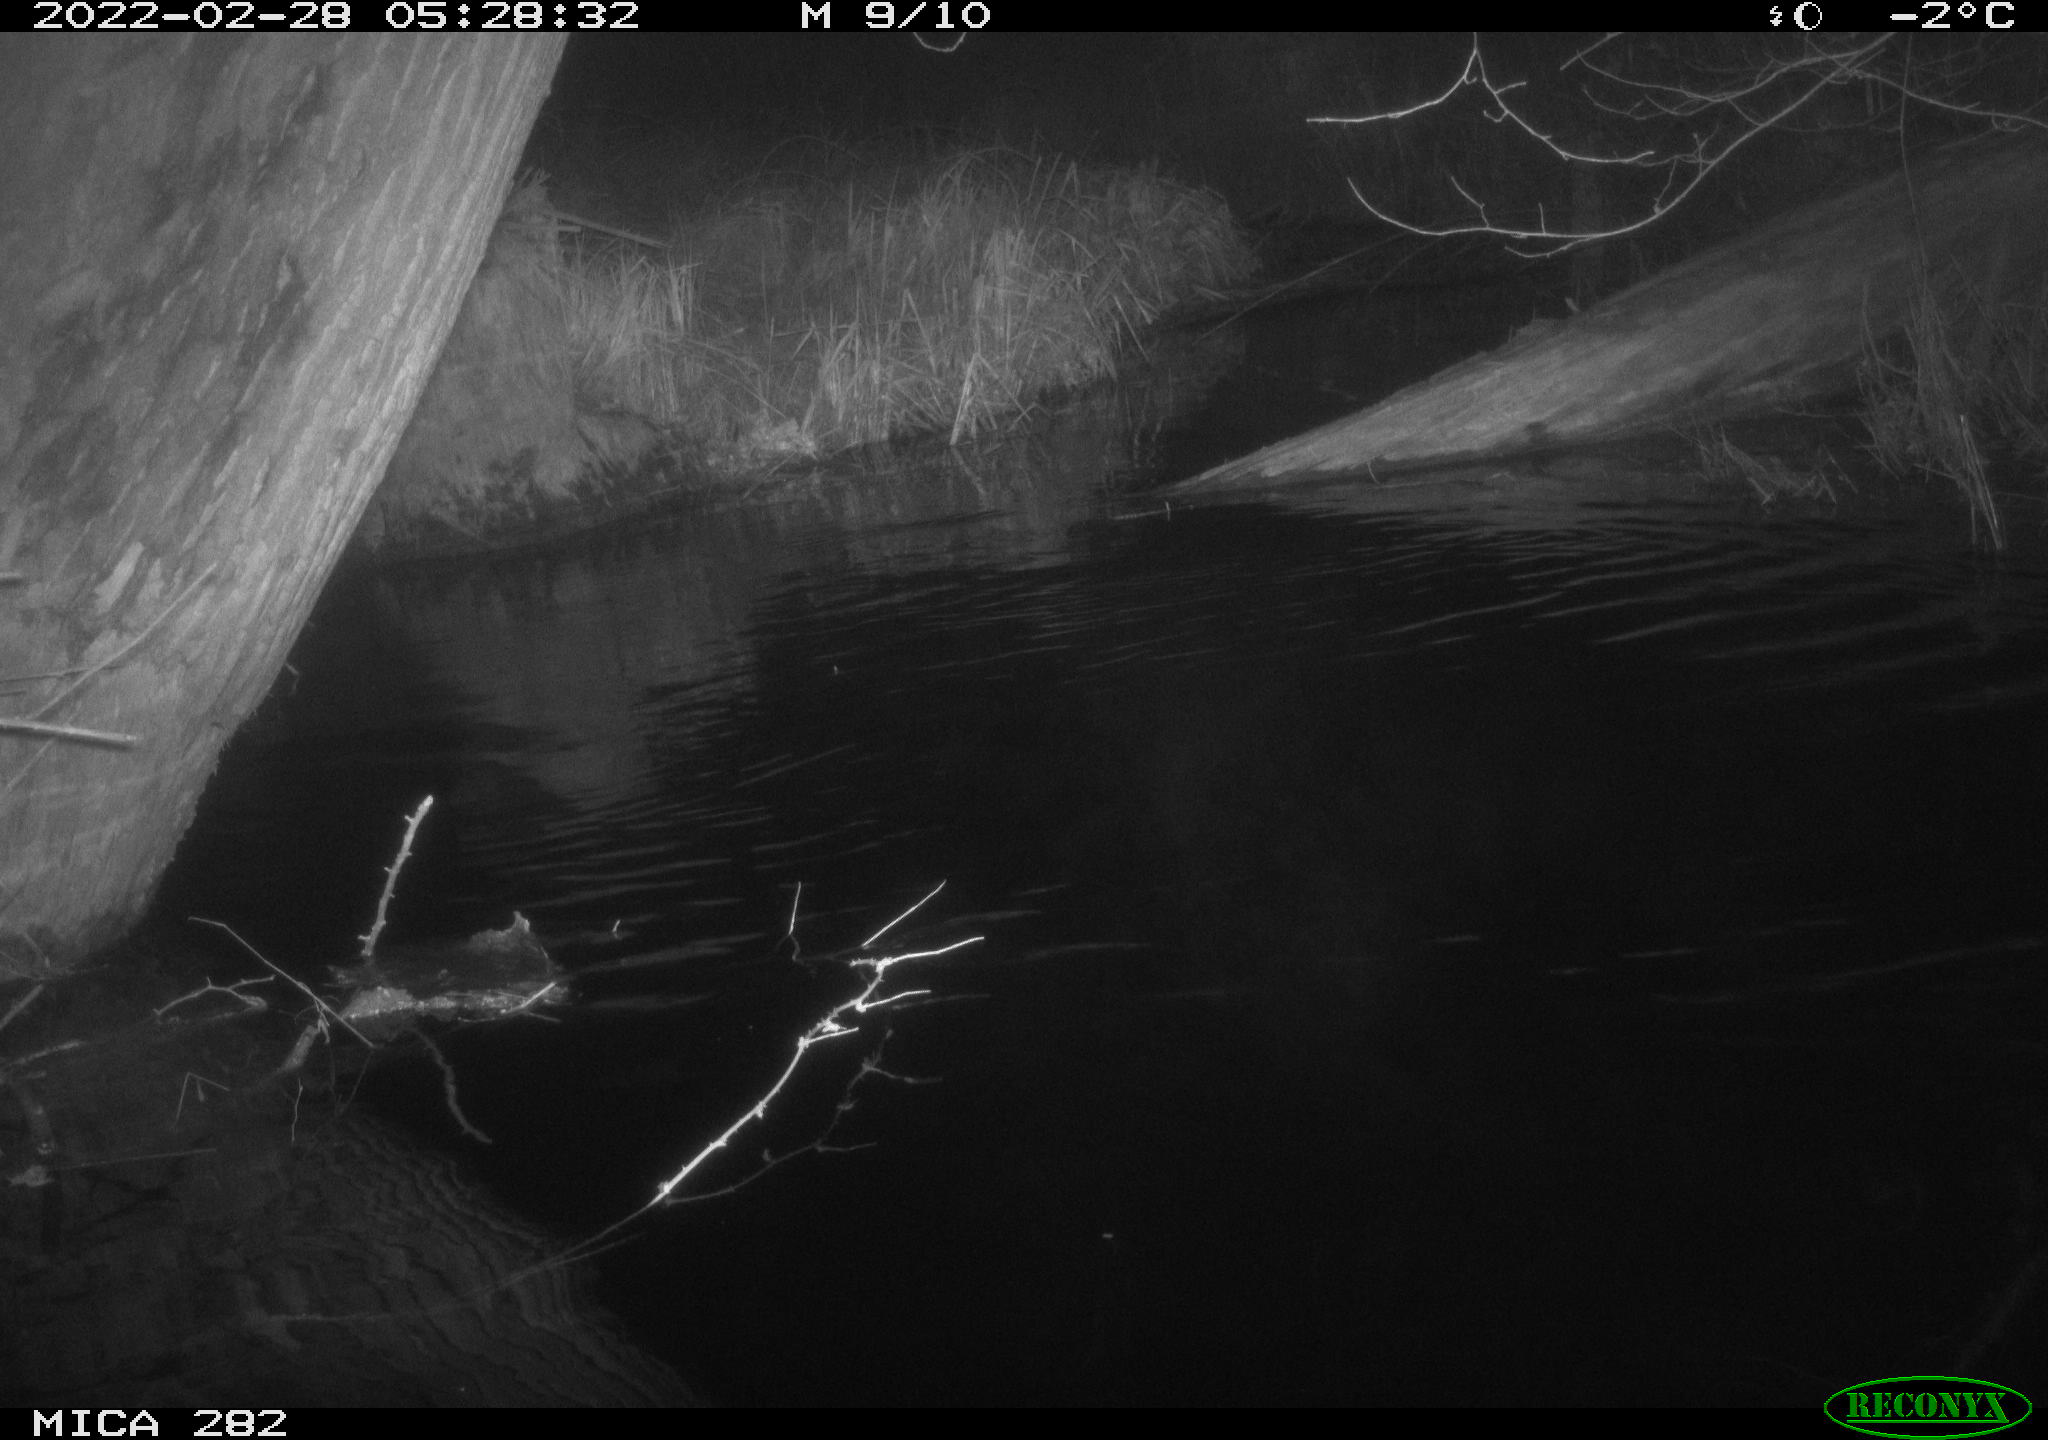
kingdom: Animalia
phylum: Chordata
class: Mammalia
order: Rodentia
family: Castoridae
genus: Castor
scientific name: Castor fiber
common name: Eurasian beaver
